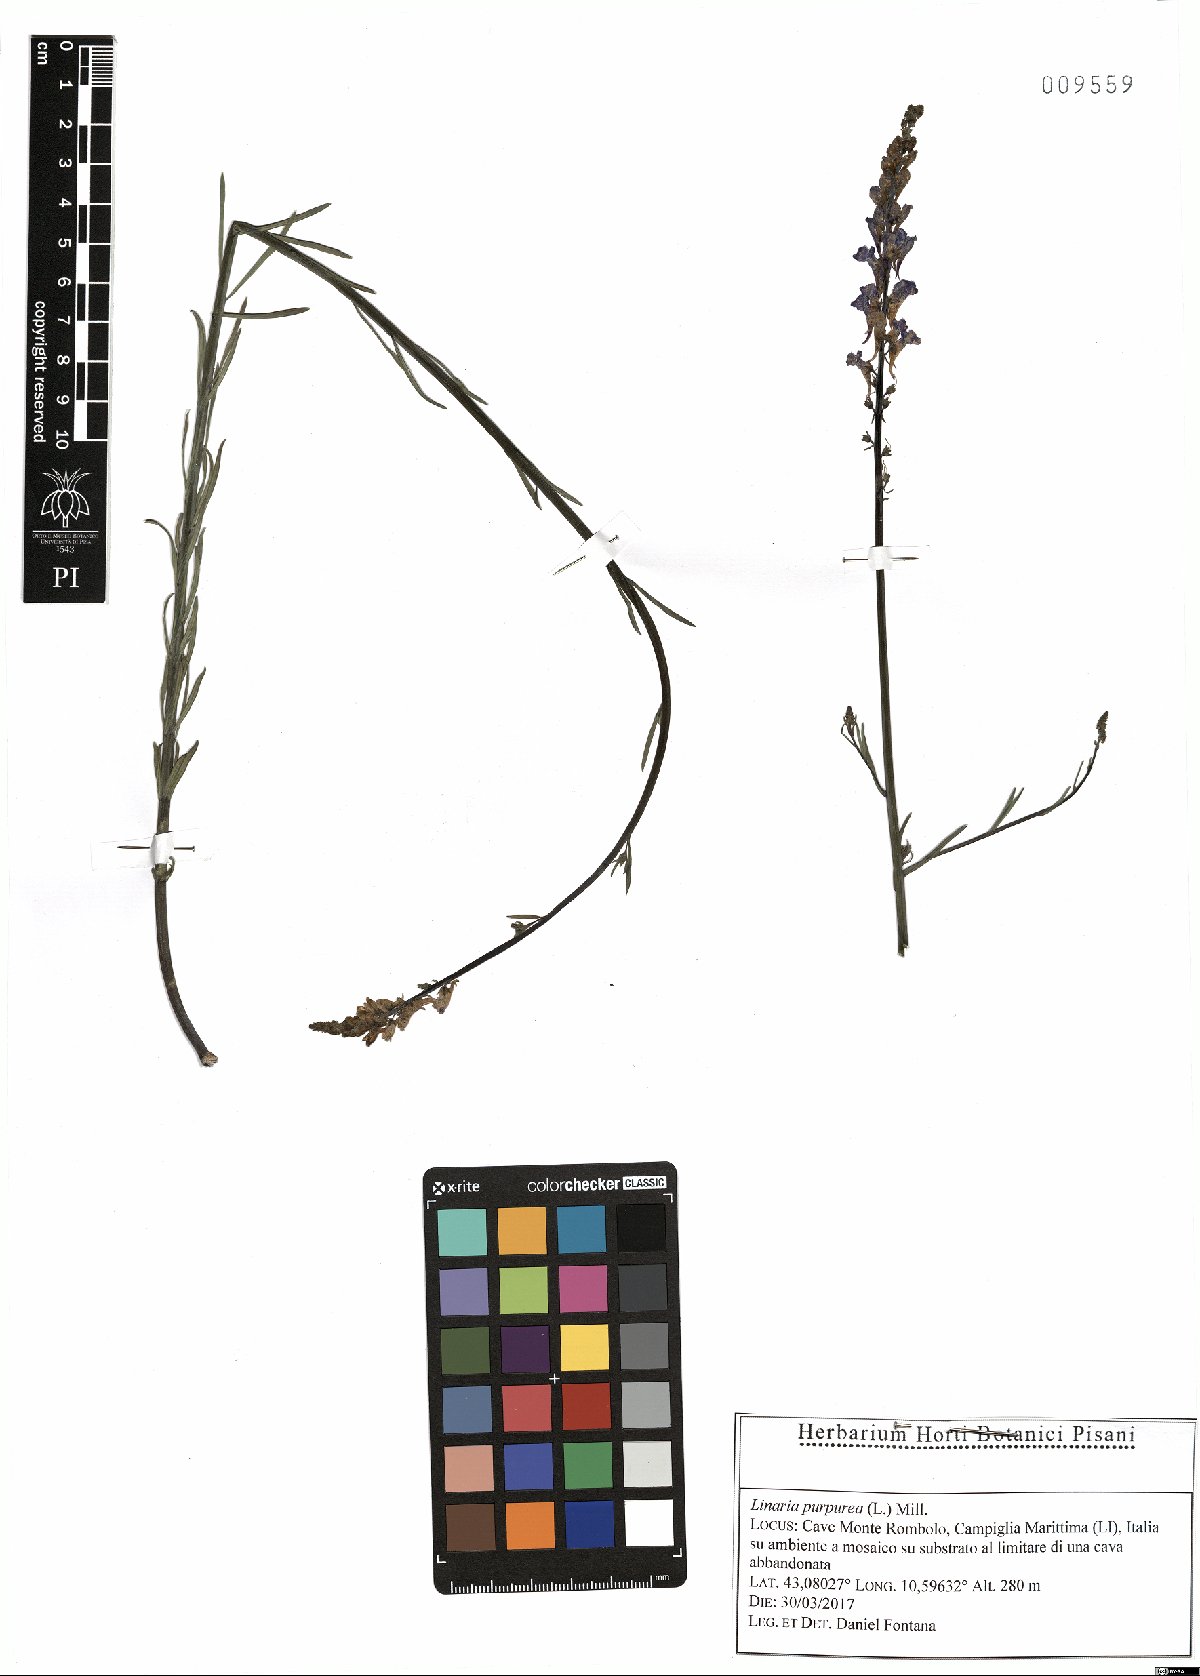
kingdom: Plantae
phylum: Tracheophyta
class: Magnoliopsida
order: Lamiales
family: Plantaginaceae
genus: Linaria
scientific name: Linaria purpurea
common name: Purple toadflax
